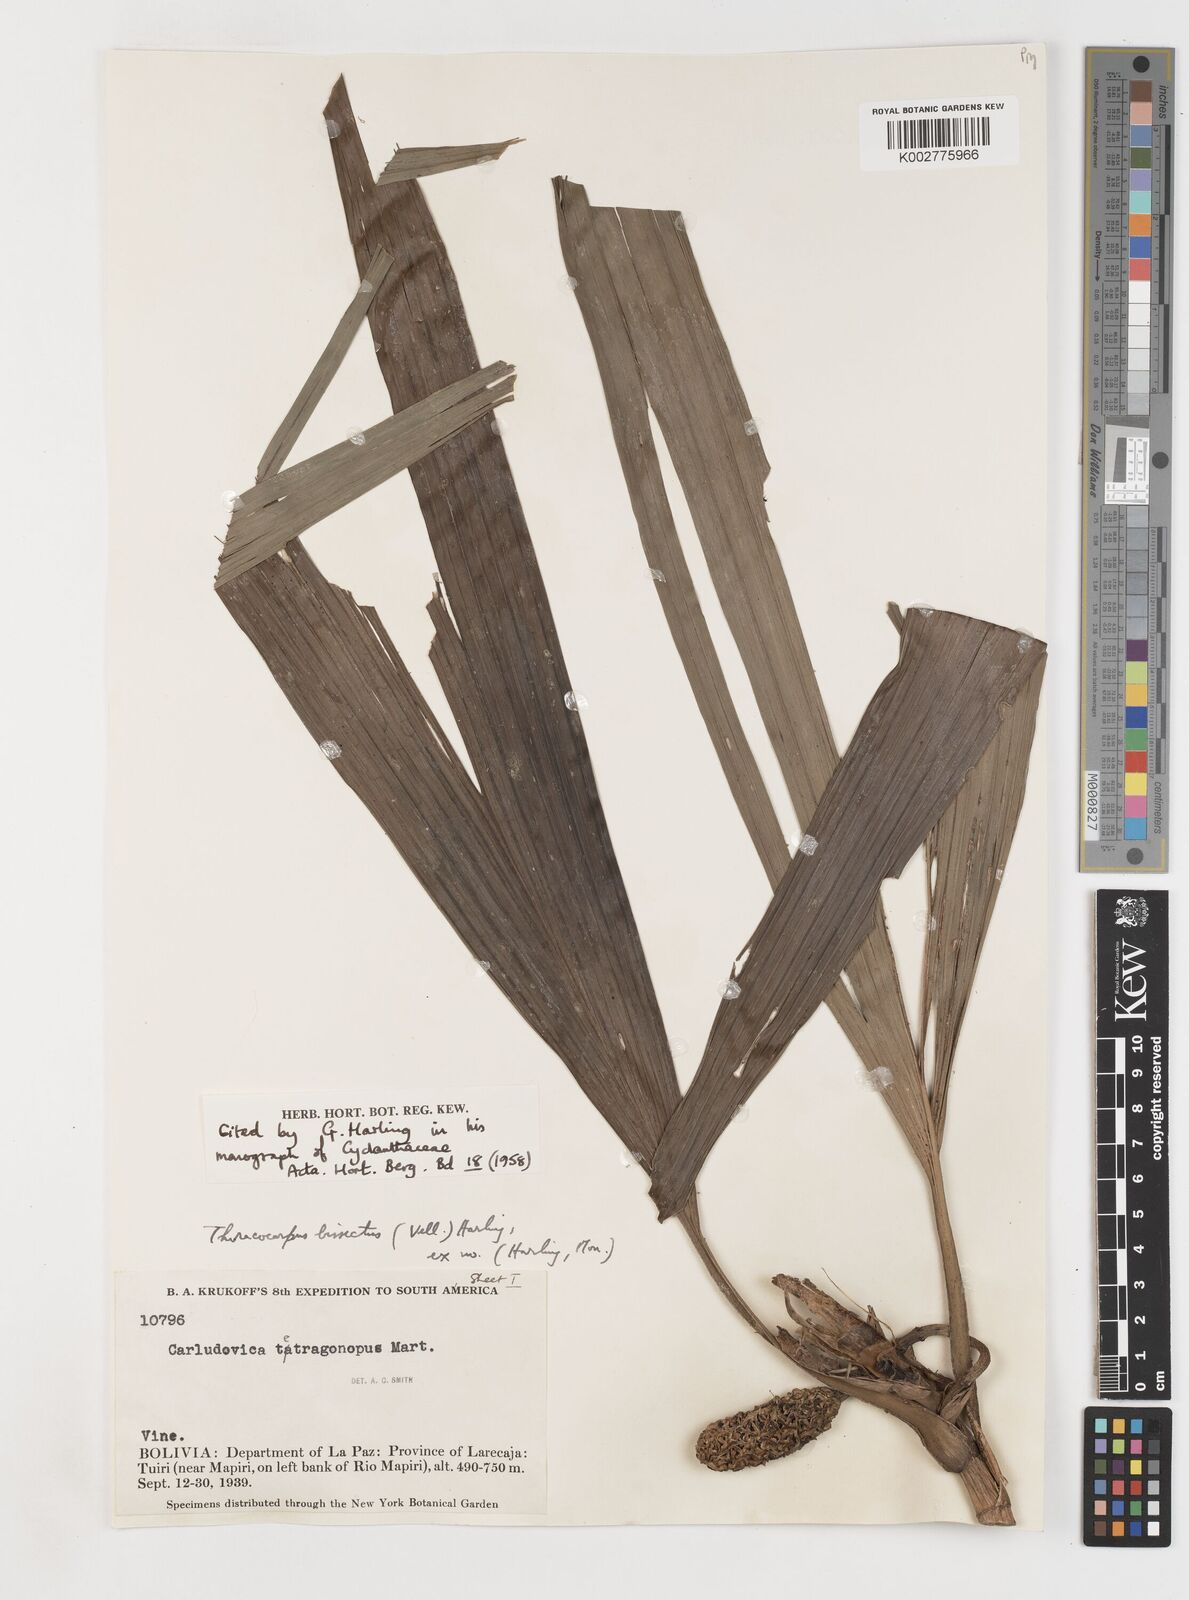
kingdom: Plantae
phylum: Tracheophyta
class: Liliopsida
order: Pandanales
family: Cyclanthaceae
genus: Thoracocarpus
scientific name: Thoracocarpus bissectus
